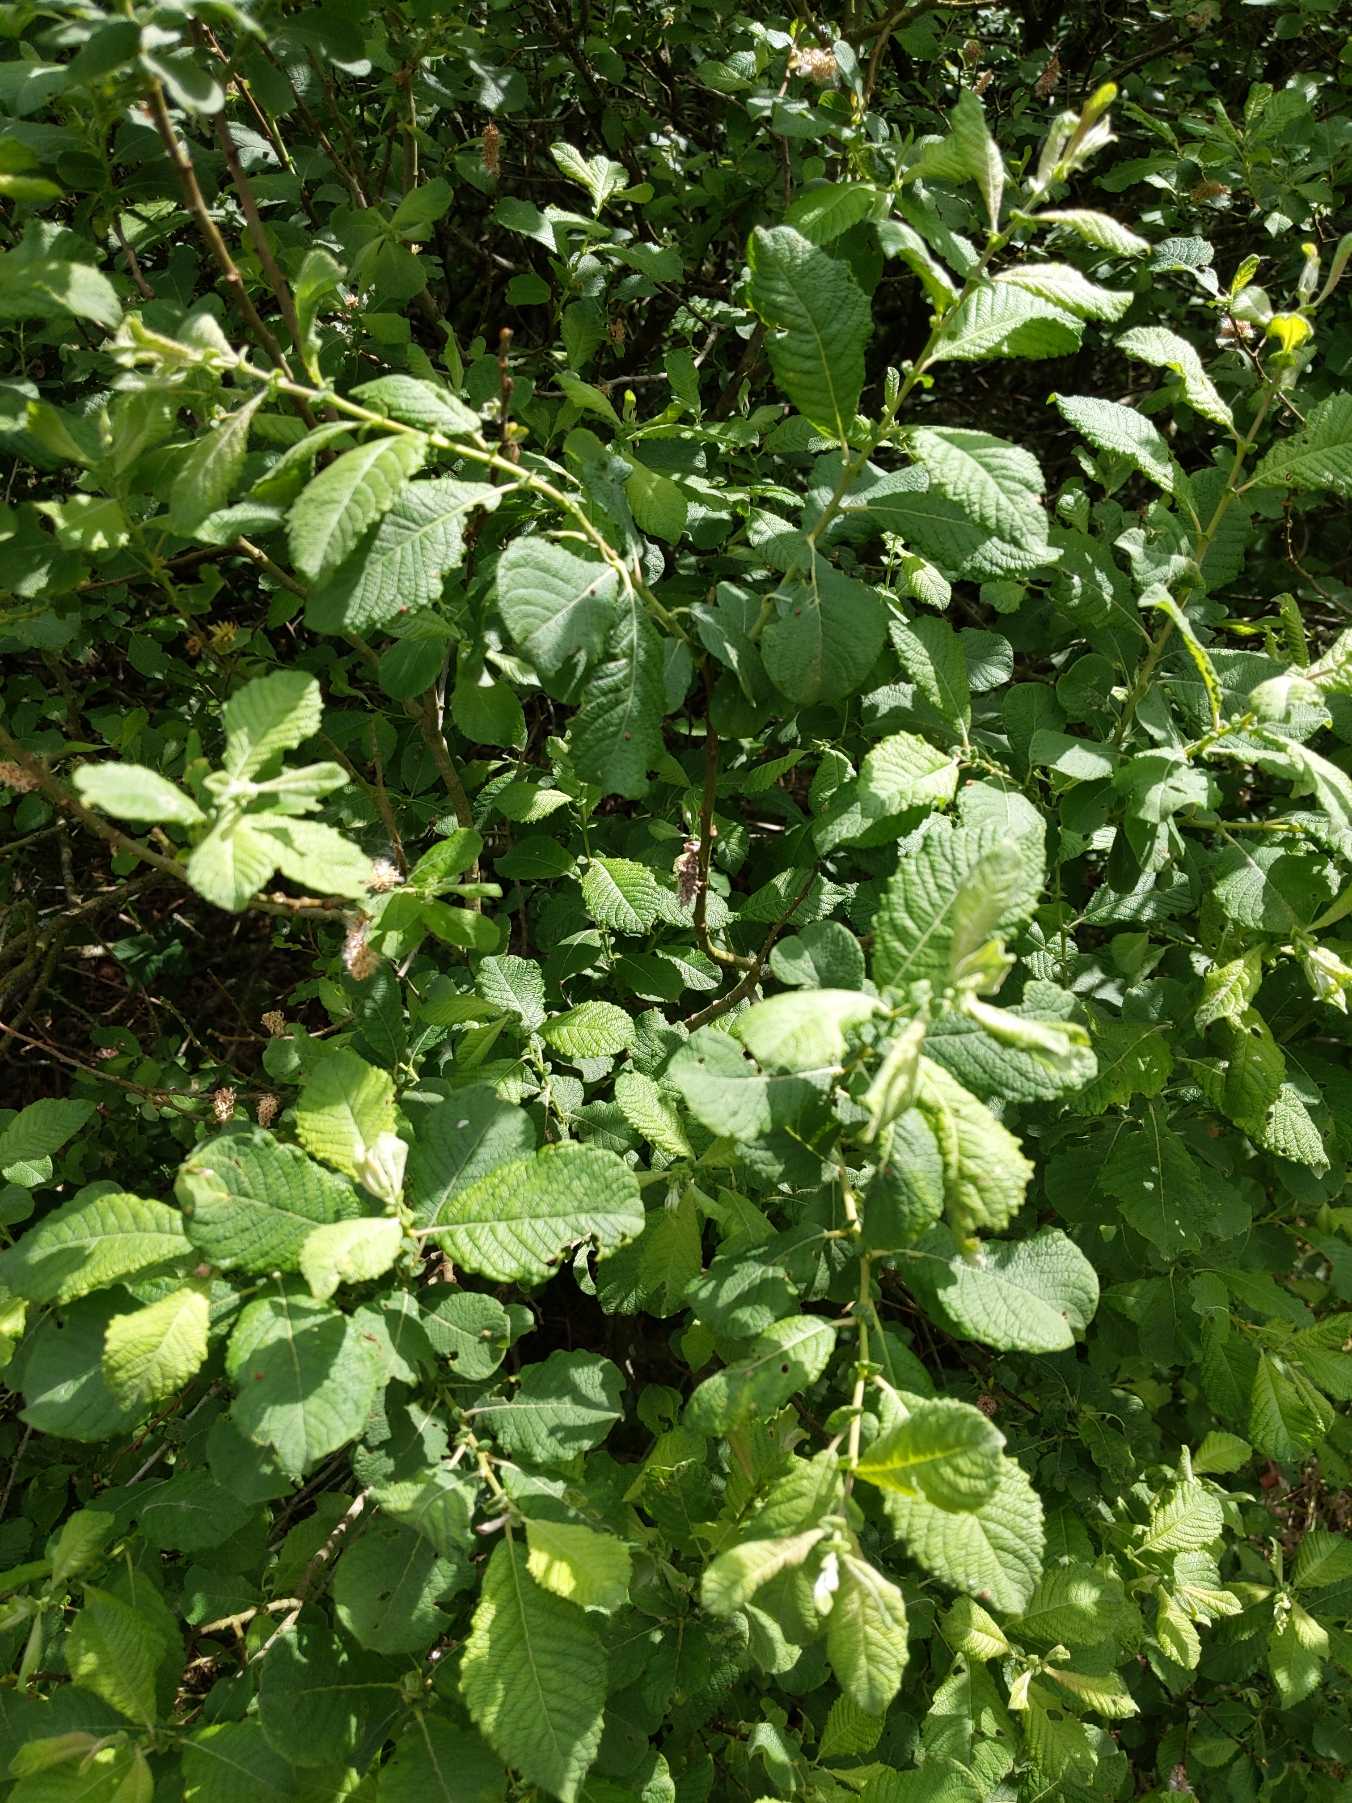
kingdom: Plantae
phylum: Tracheophyta
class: Magnoliopsida
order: Malpighiales
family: Salicaceae
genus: Salix
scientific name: Salix aurita
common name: Øret pil
